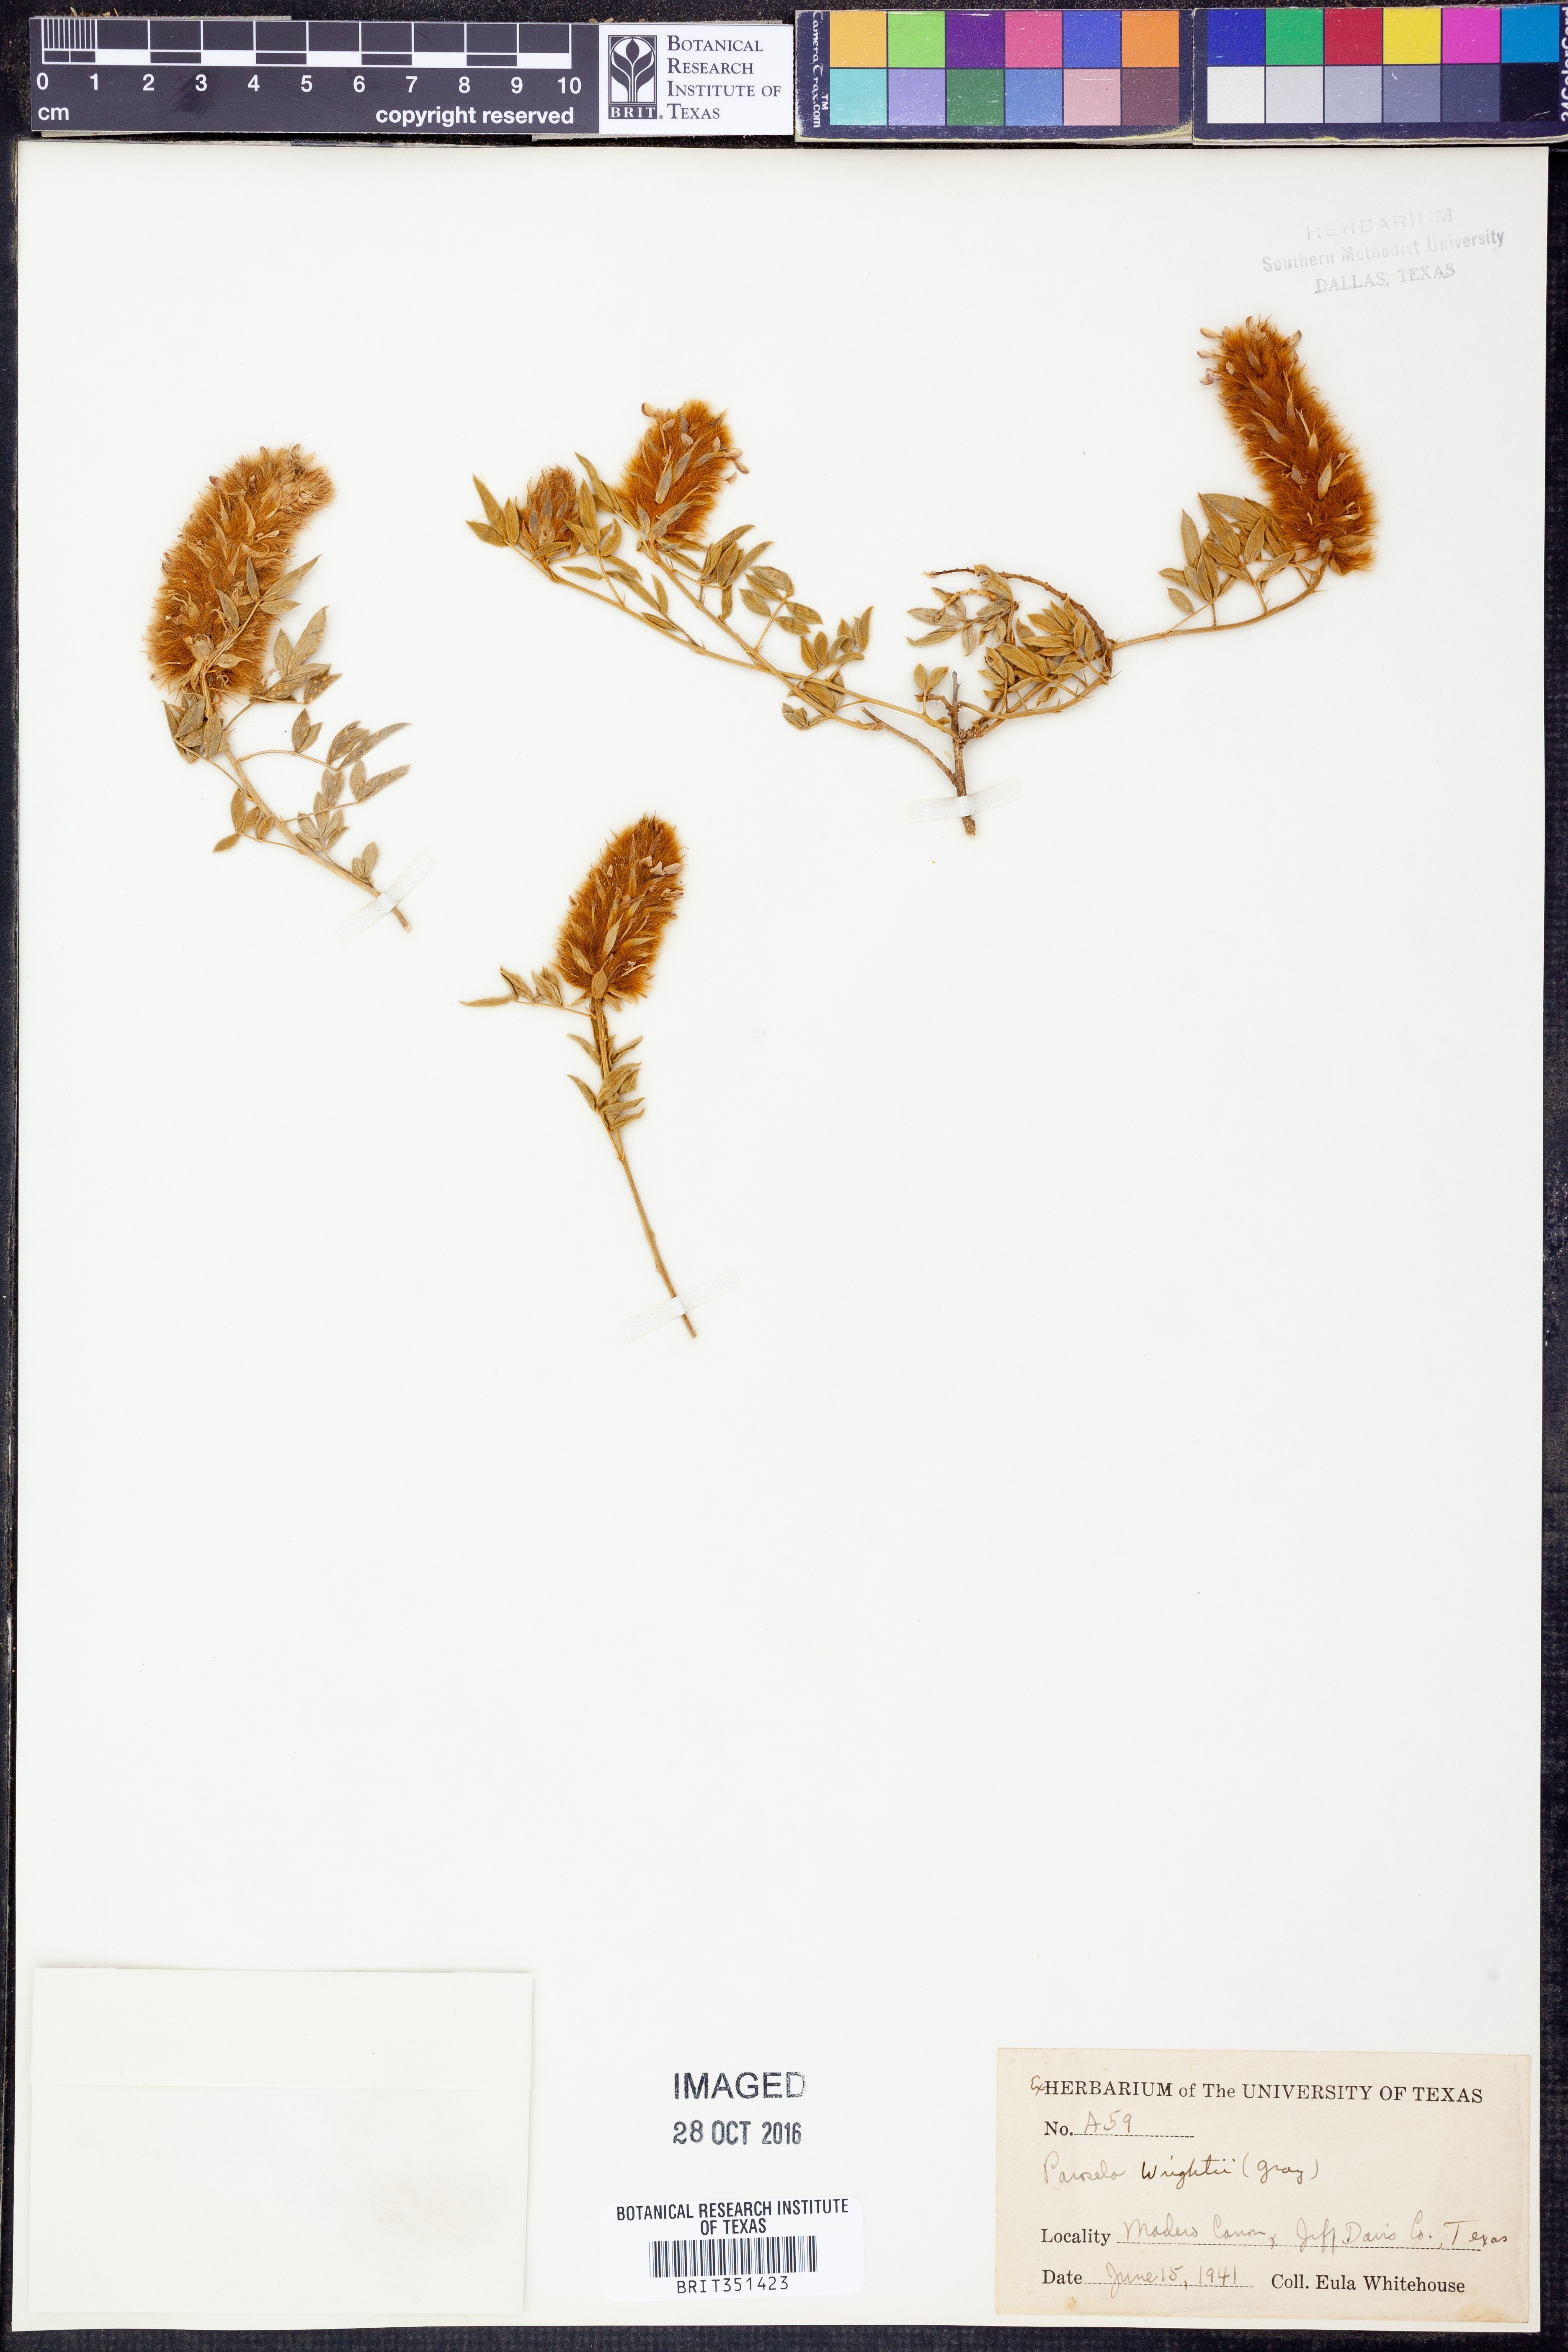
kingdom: Plantae
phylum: Tracheophyta
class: Magnoliopsida
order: Fabales
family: Fabaceae
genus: Dalea
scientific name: Dalea wrightii
